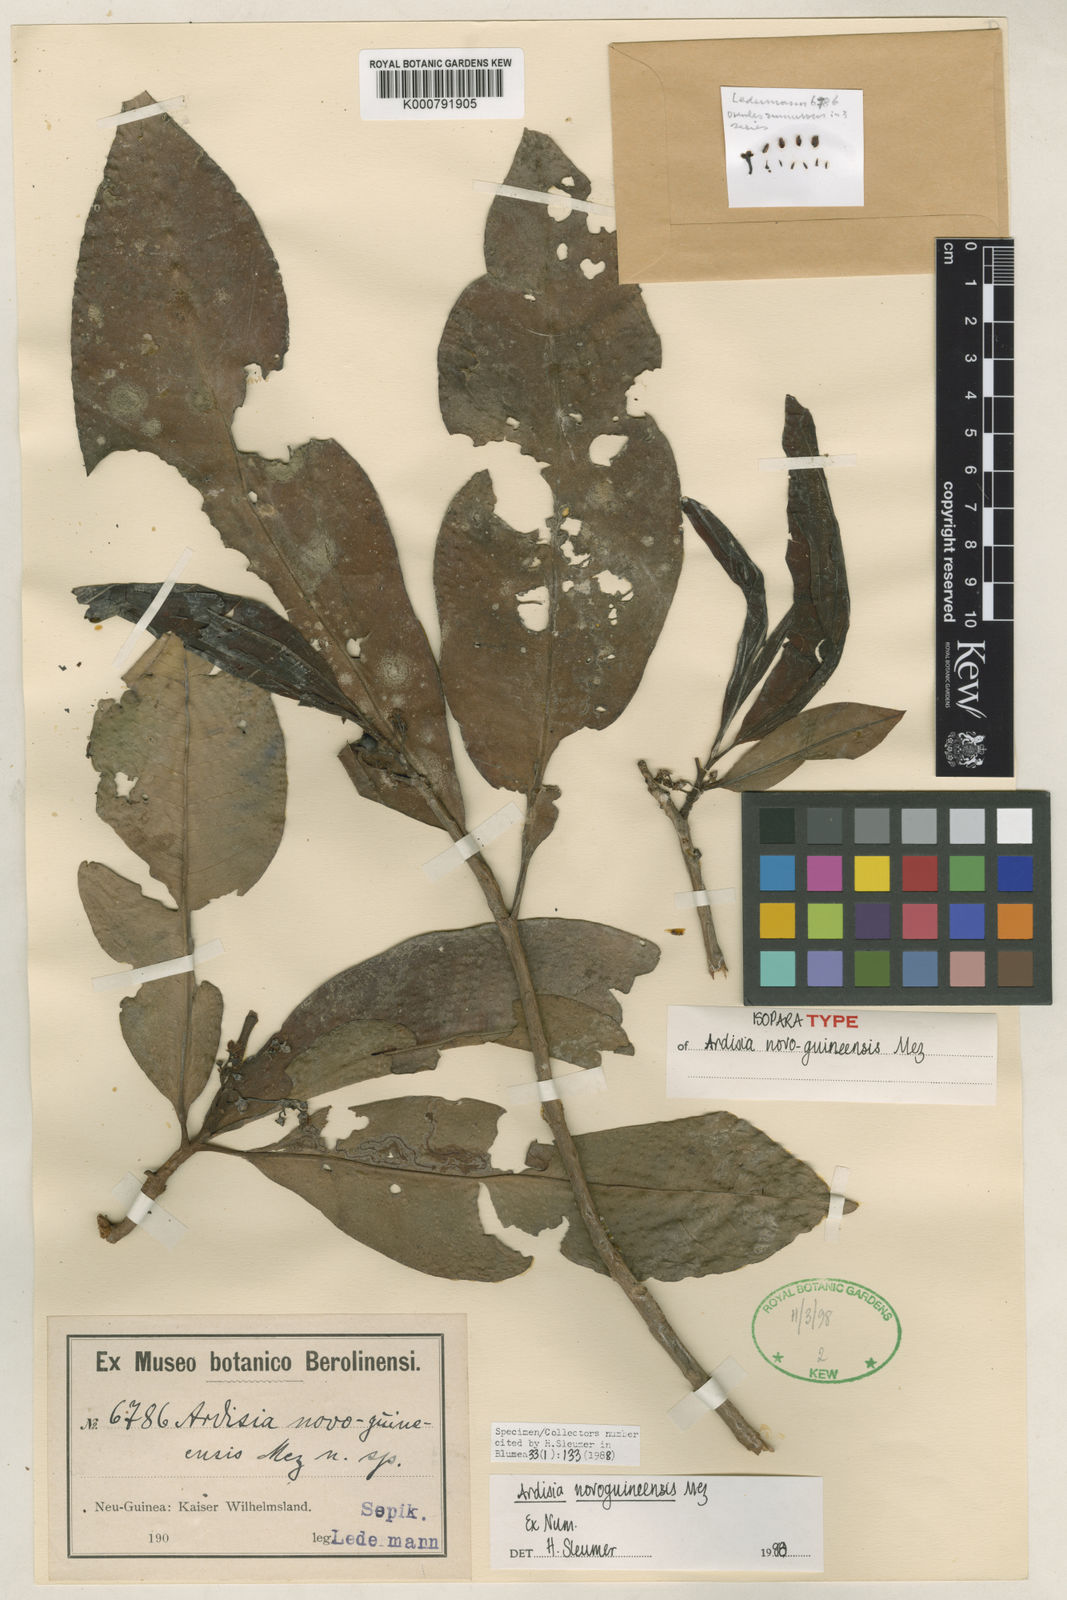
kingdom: Plantae
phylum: Tracheophyta
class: Magnoliopsida
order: Ericales
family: Primulaceae
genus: Ardisia
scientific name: Ardisia imperialis
